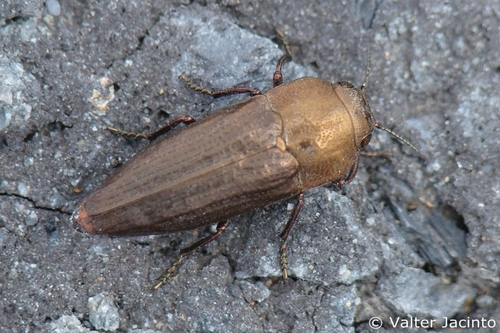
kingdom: Animalia
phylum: Arthropoda
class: Insecta
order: Coleoptera
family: Buprestidae
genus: Sphenoptera
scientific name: Sphenoptera barbarica
